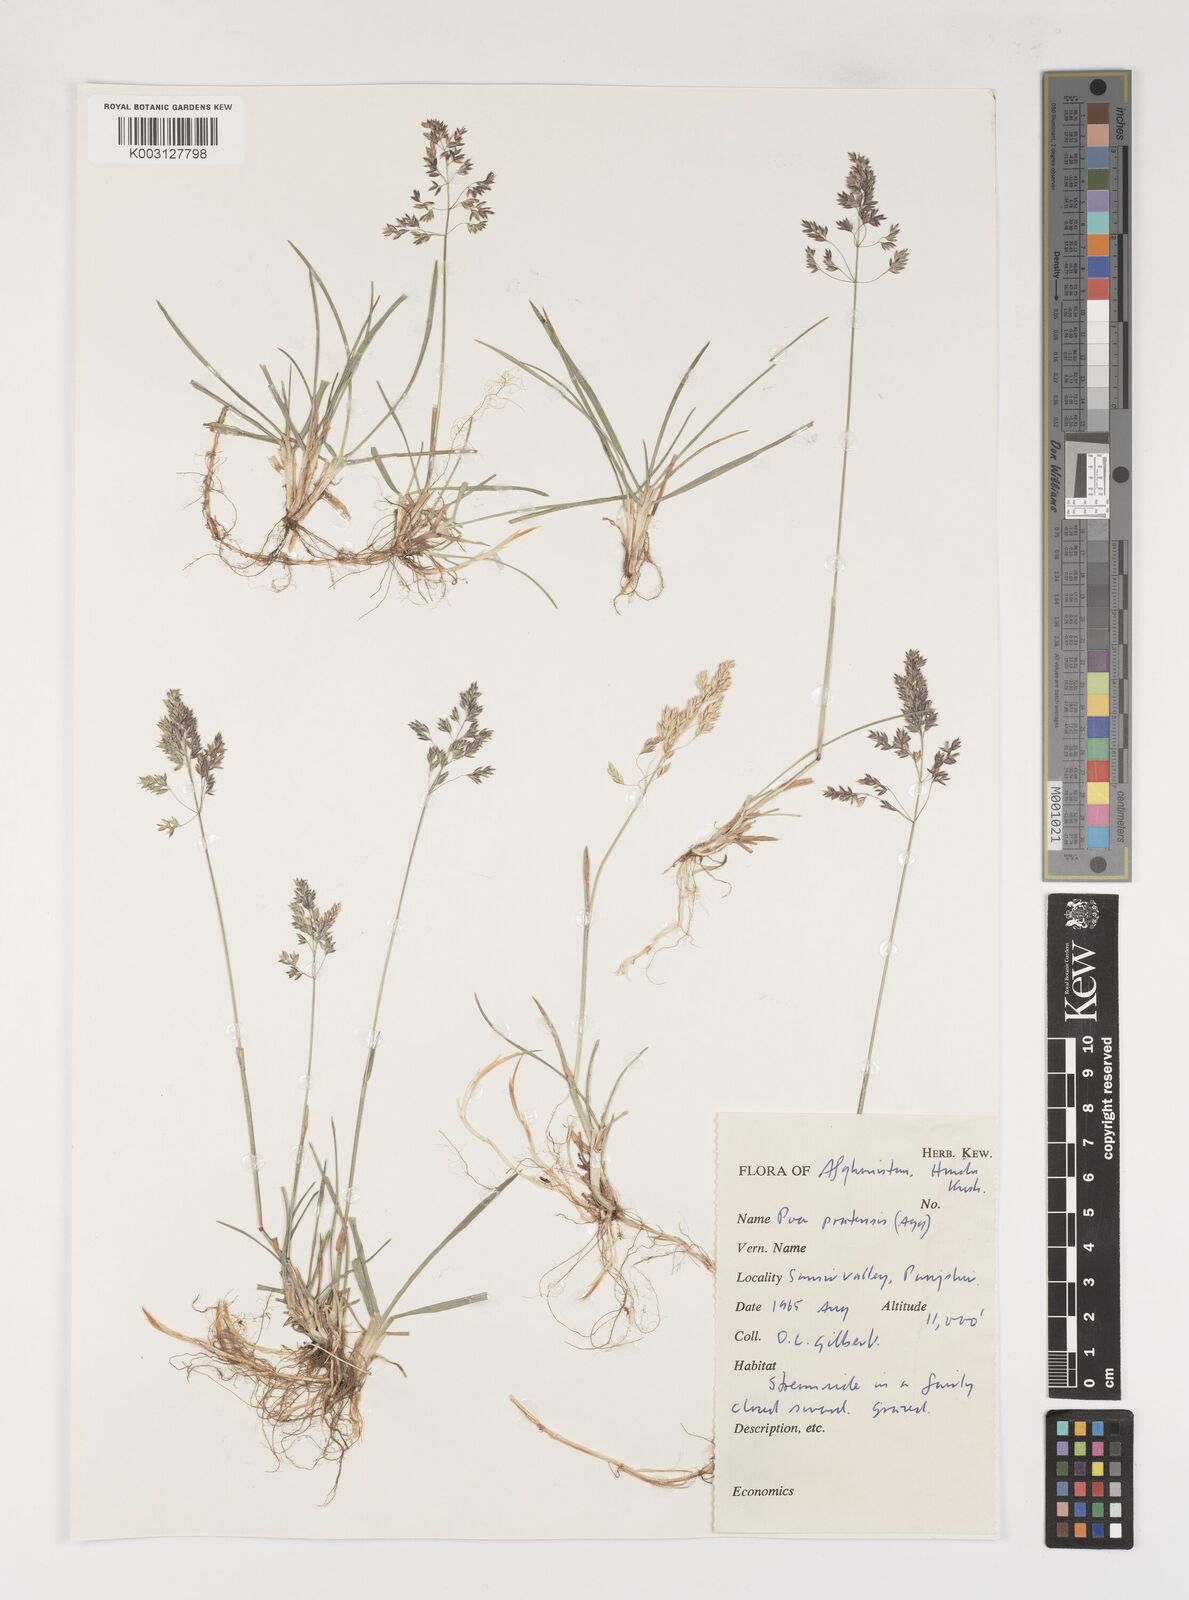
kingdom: Plantae
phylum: Tracheophyta
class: Liliopsida
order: Poales
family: Poaceae
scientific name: Poaceae
